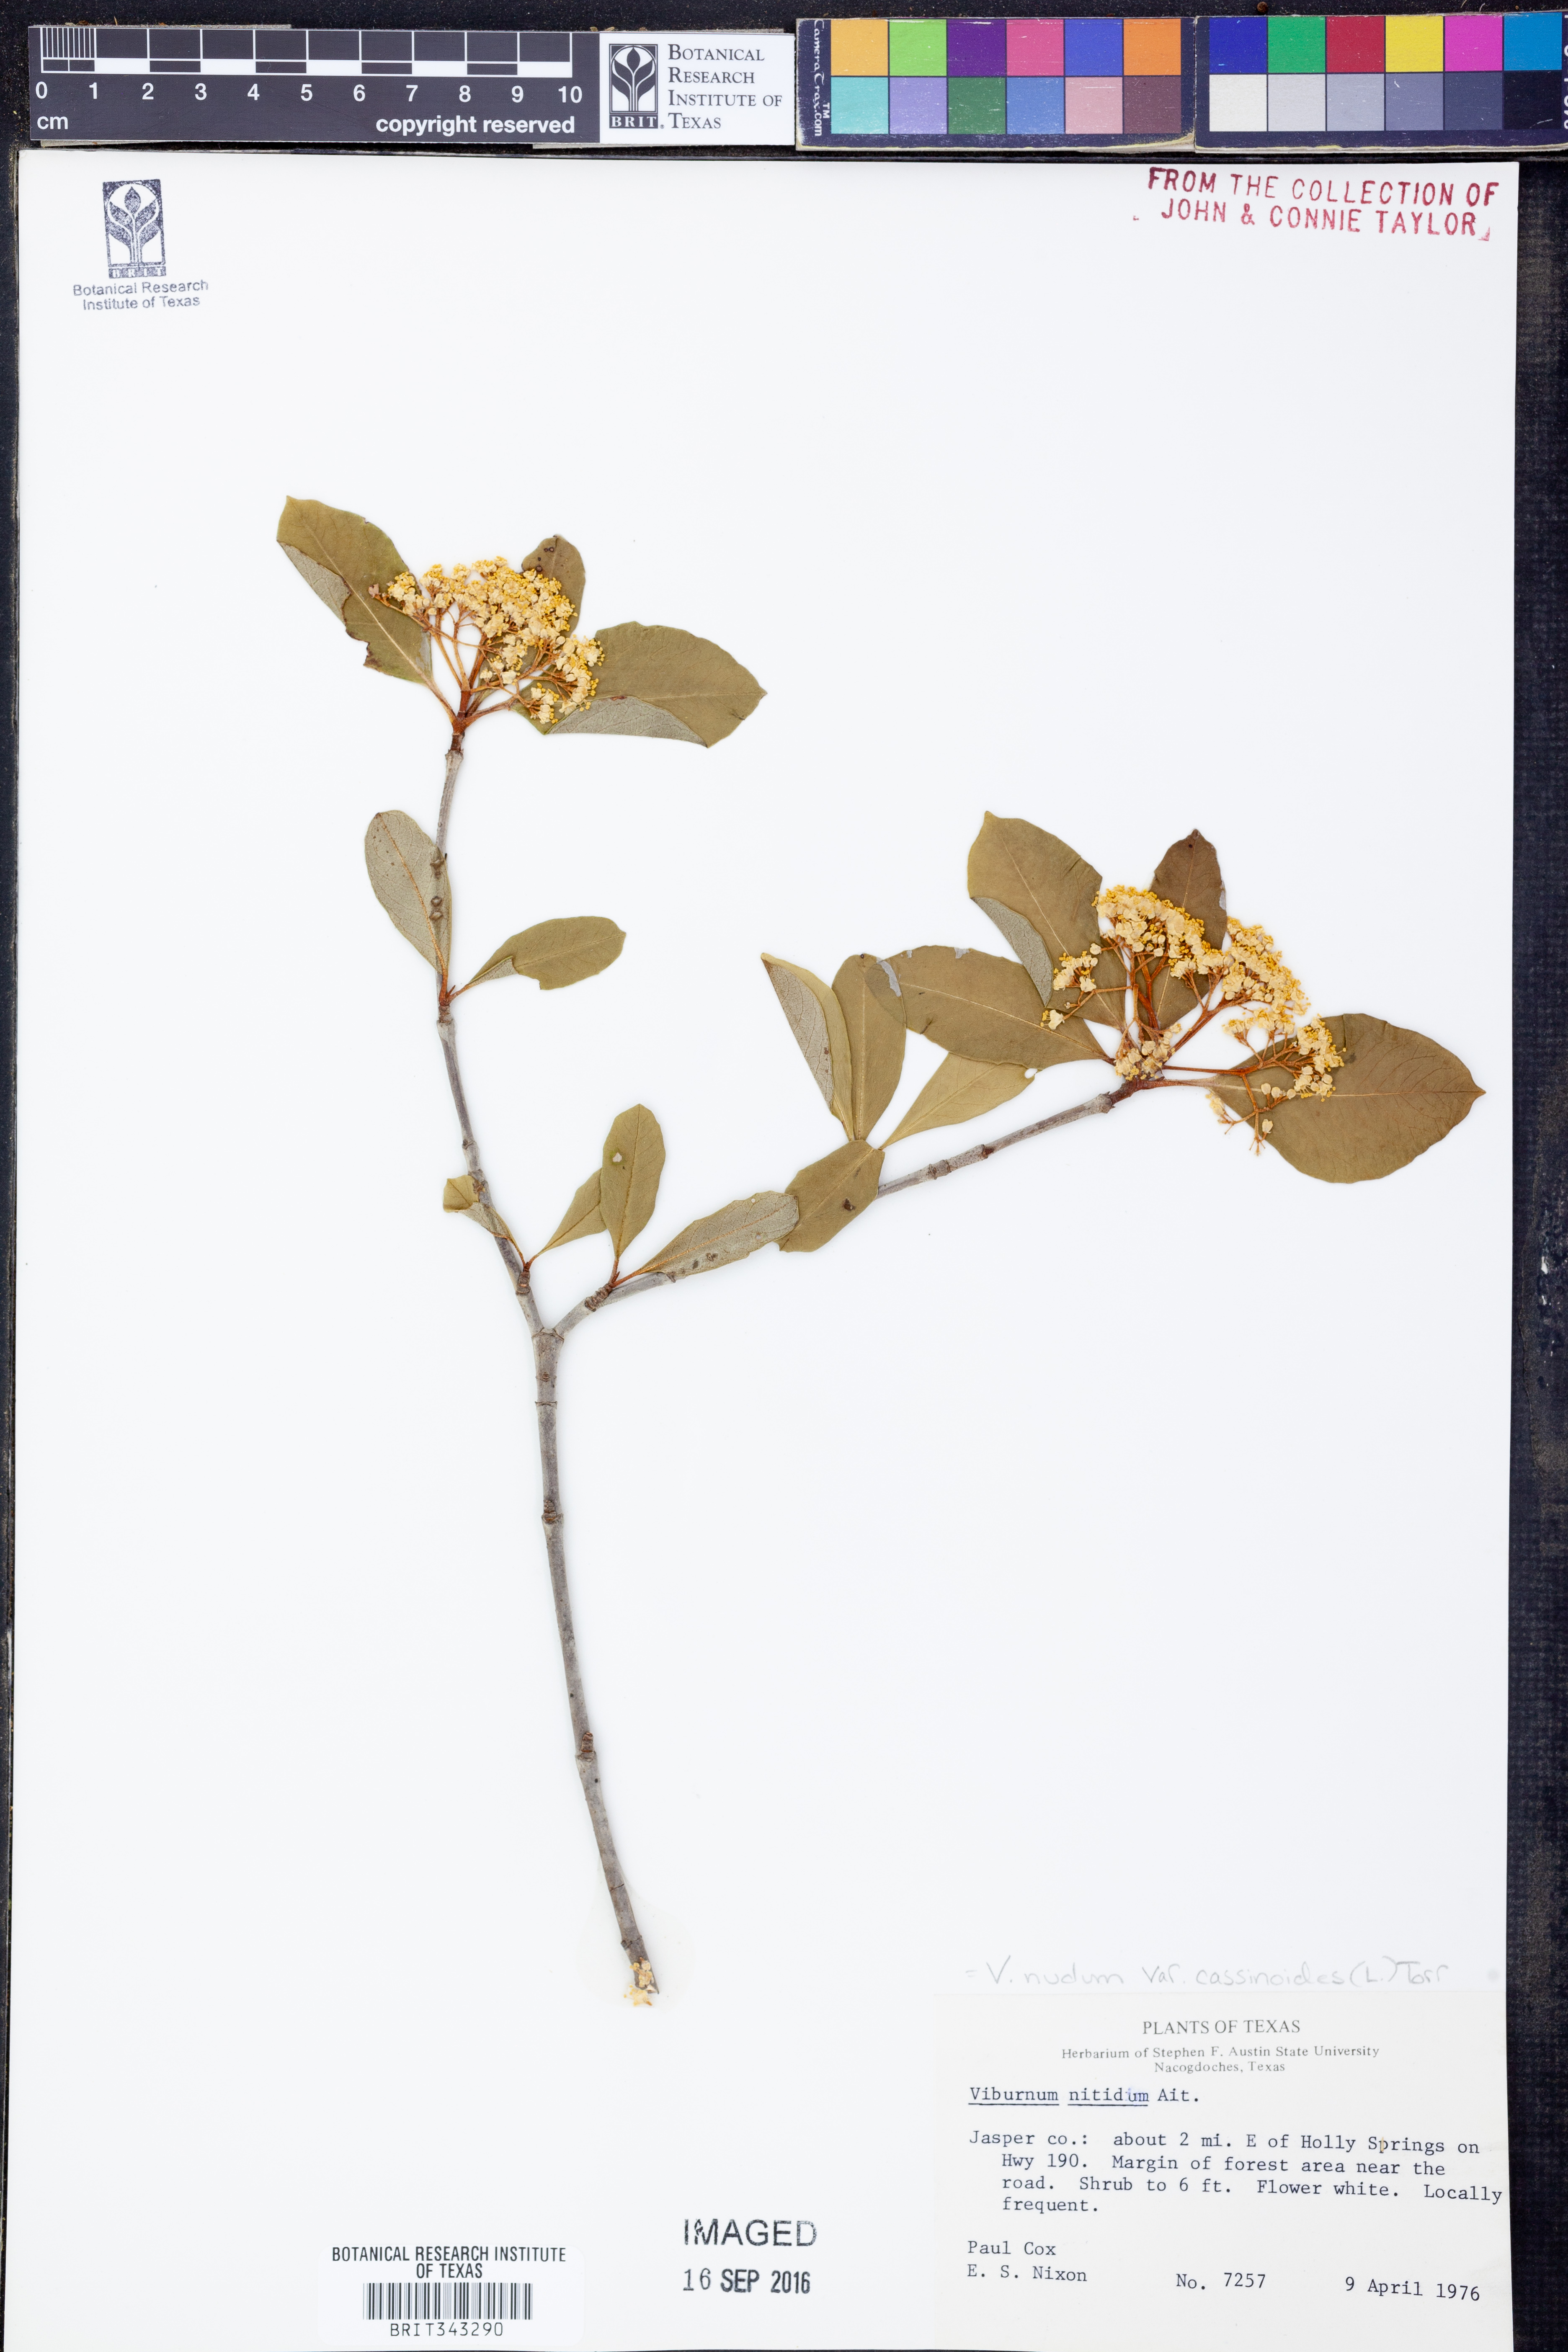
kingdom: Plantae
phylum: Tracheophyta
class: Magnoliopsida
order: Dipsacales
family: Viburnaceae
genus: Viburnum
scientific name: Viburnum cassinoides
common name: Swamp haw
